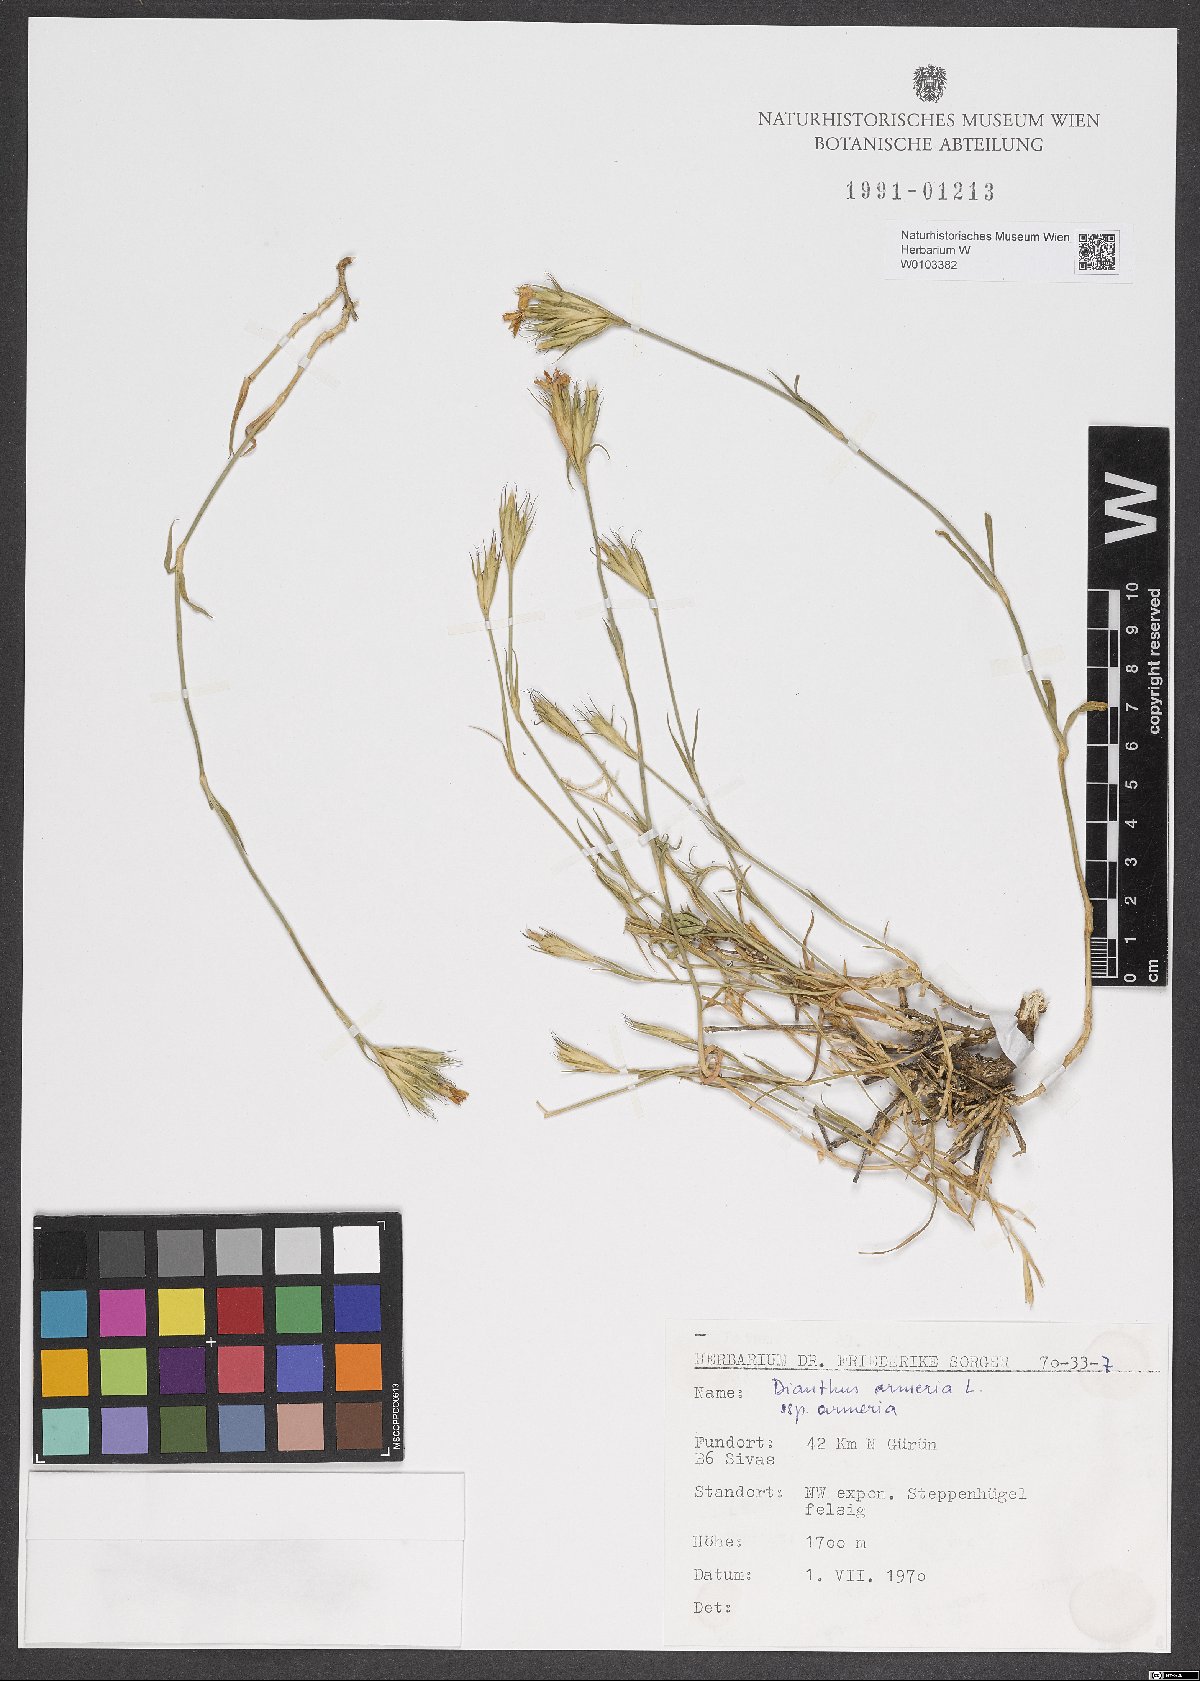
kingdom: Plantae
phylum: Tracheophyta
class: Magnoliopsida
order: Caryophyllales
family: Caryophyllaceae
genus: Dianthus
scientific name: Dianthus armeria
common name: Deptford pink
